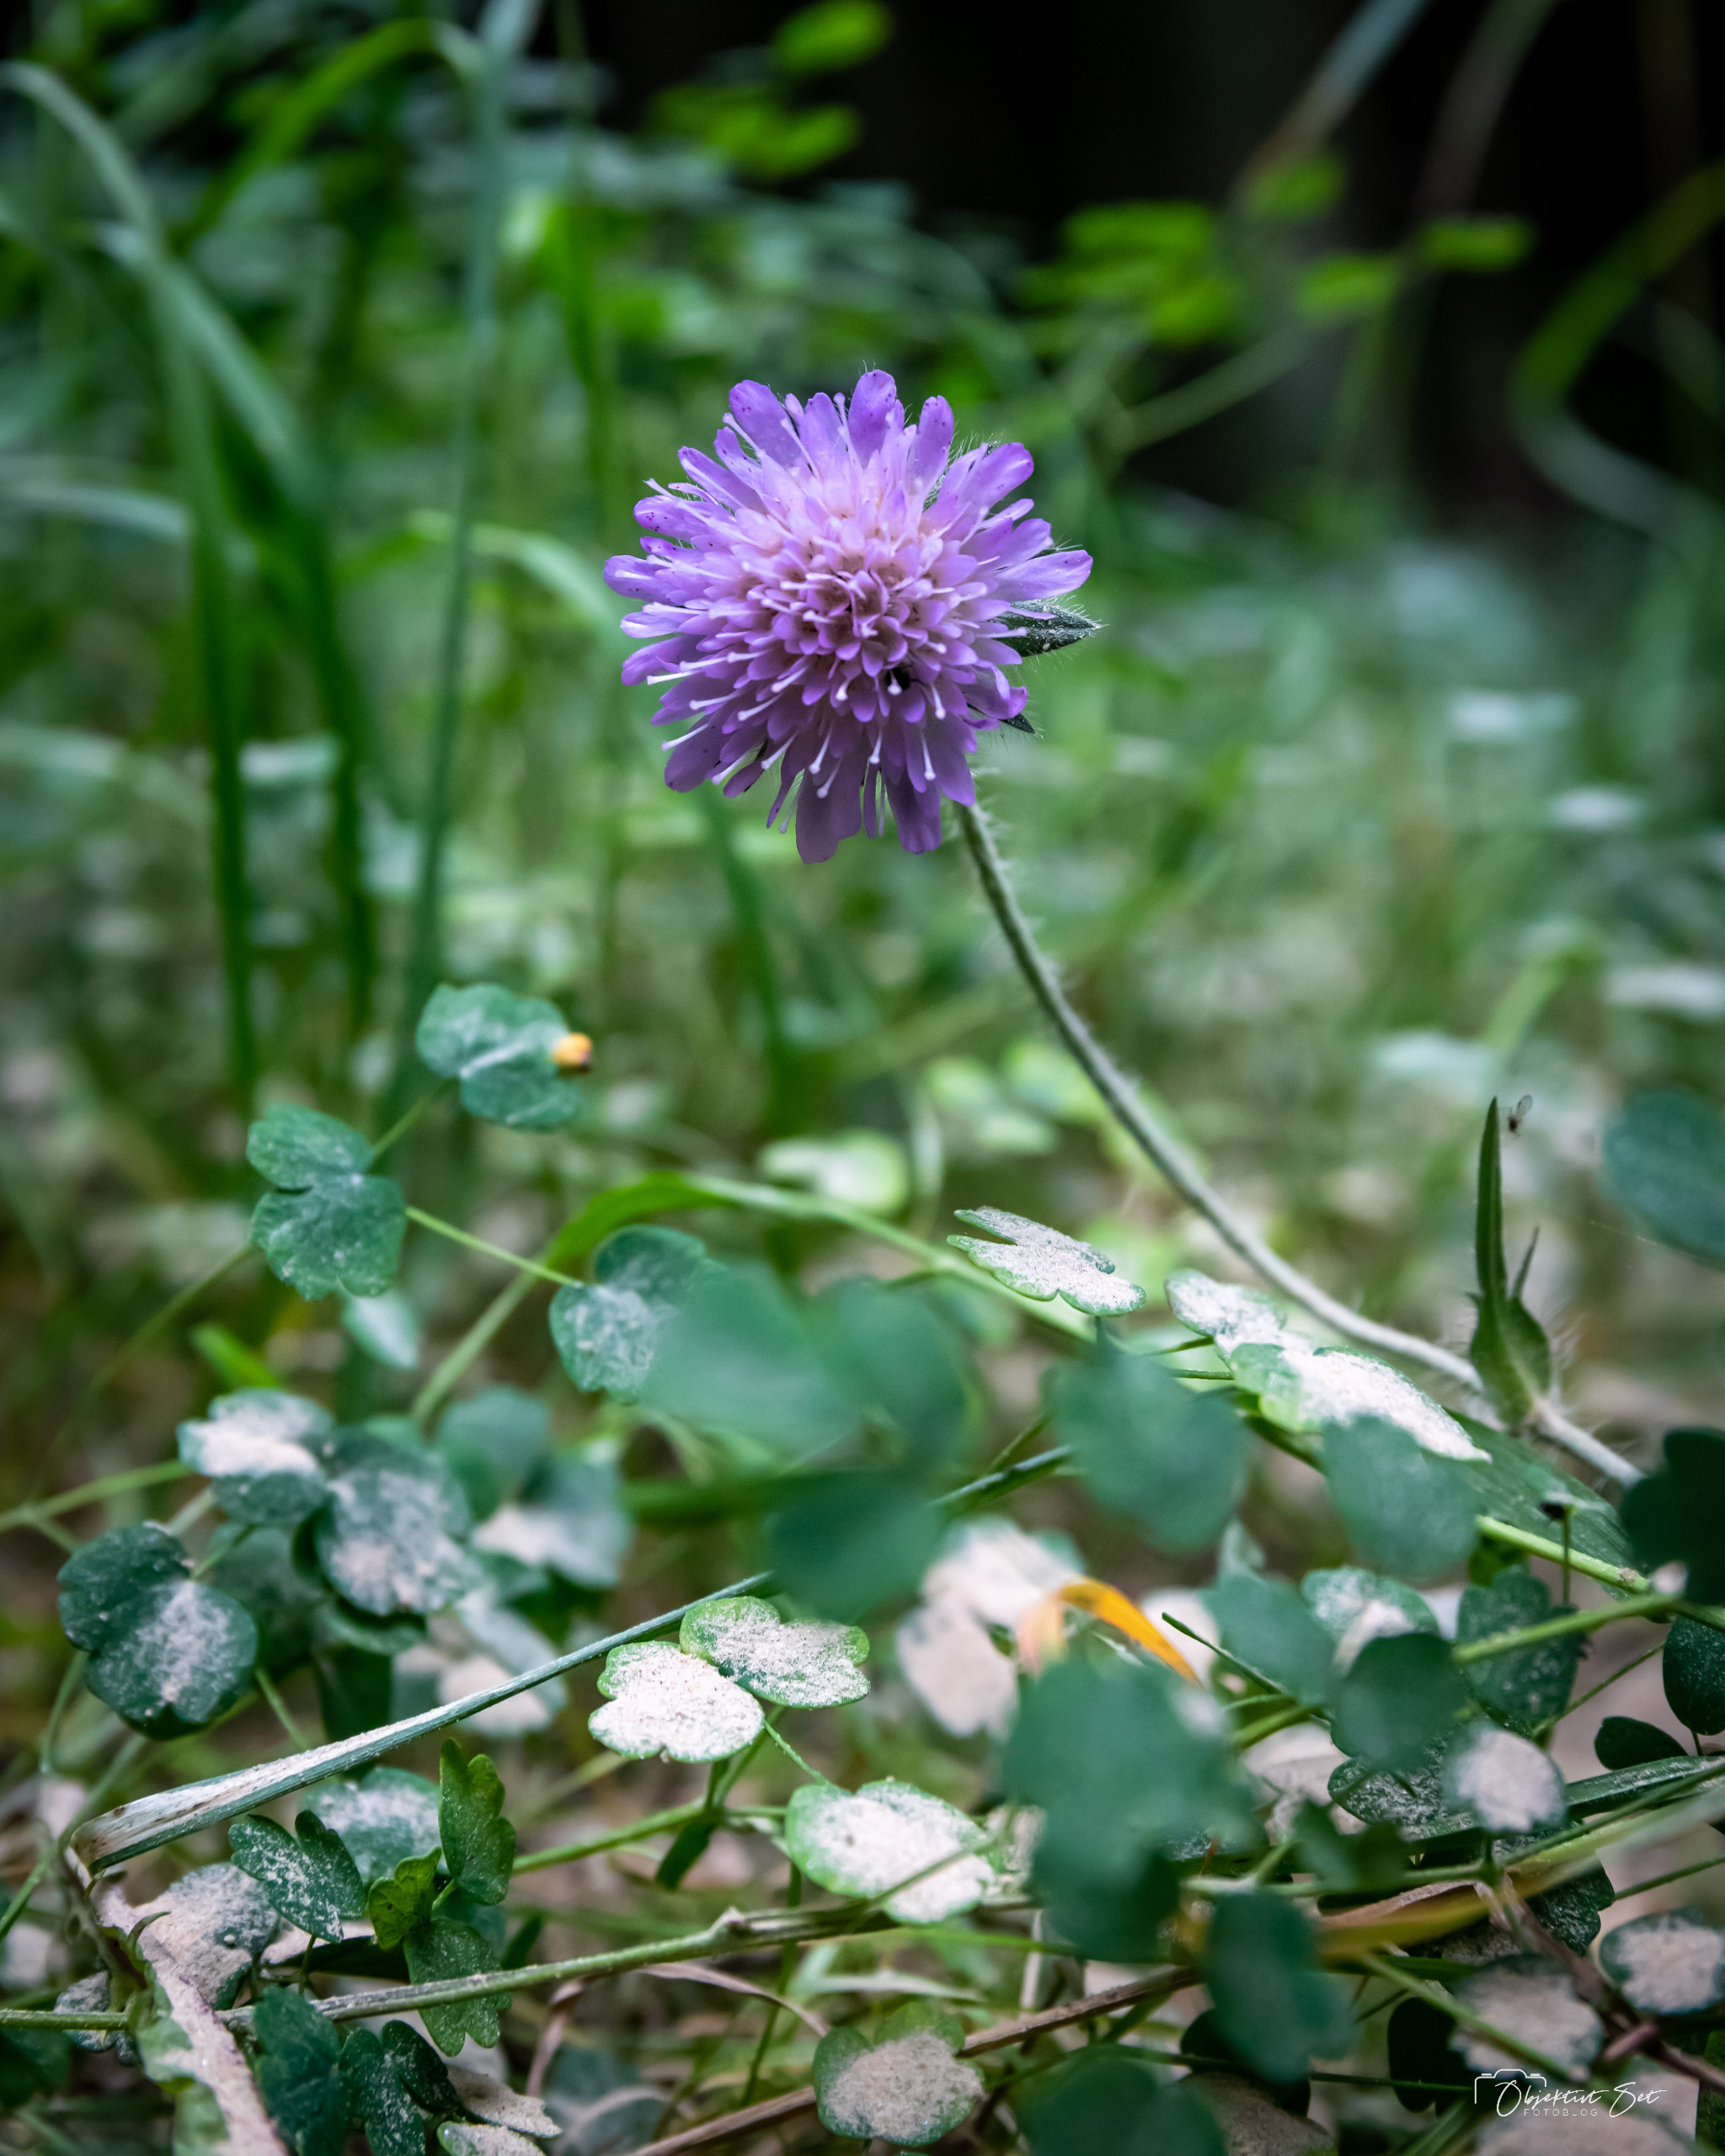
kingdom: Plantae
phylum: Tracheophyta
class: Magnoliopsida
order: Dipsacales
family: Caprifoliaceae
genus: Knautia
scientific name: Knautia arvensis
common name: Blåhat
